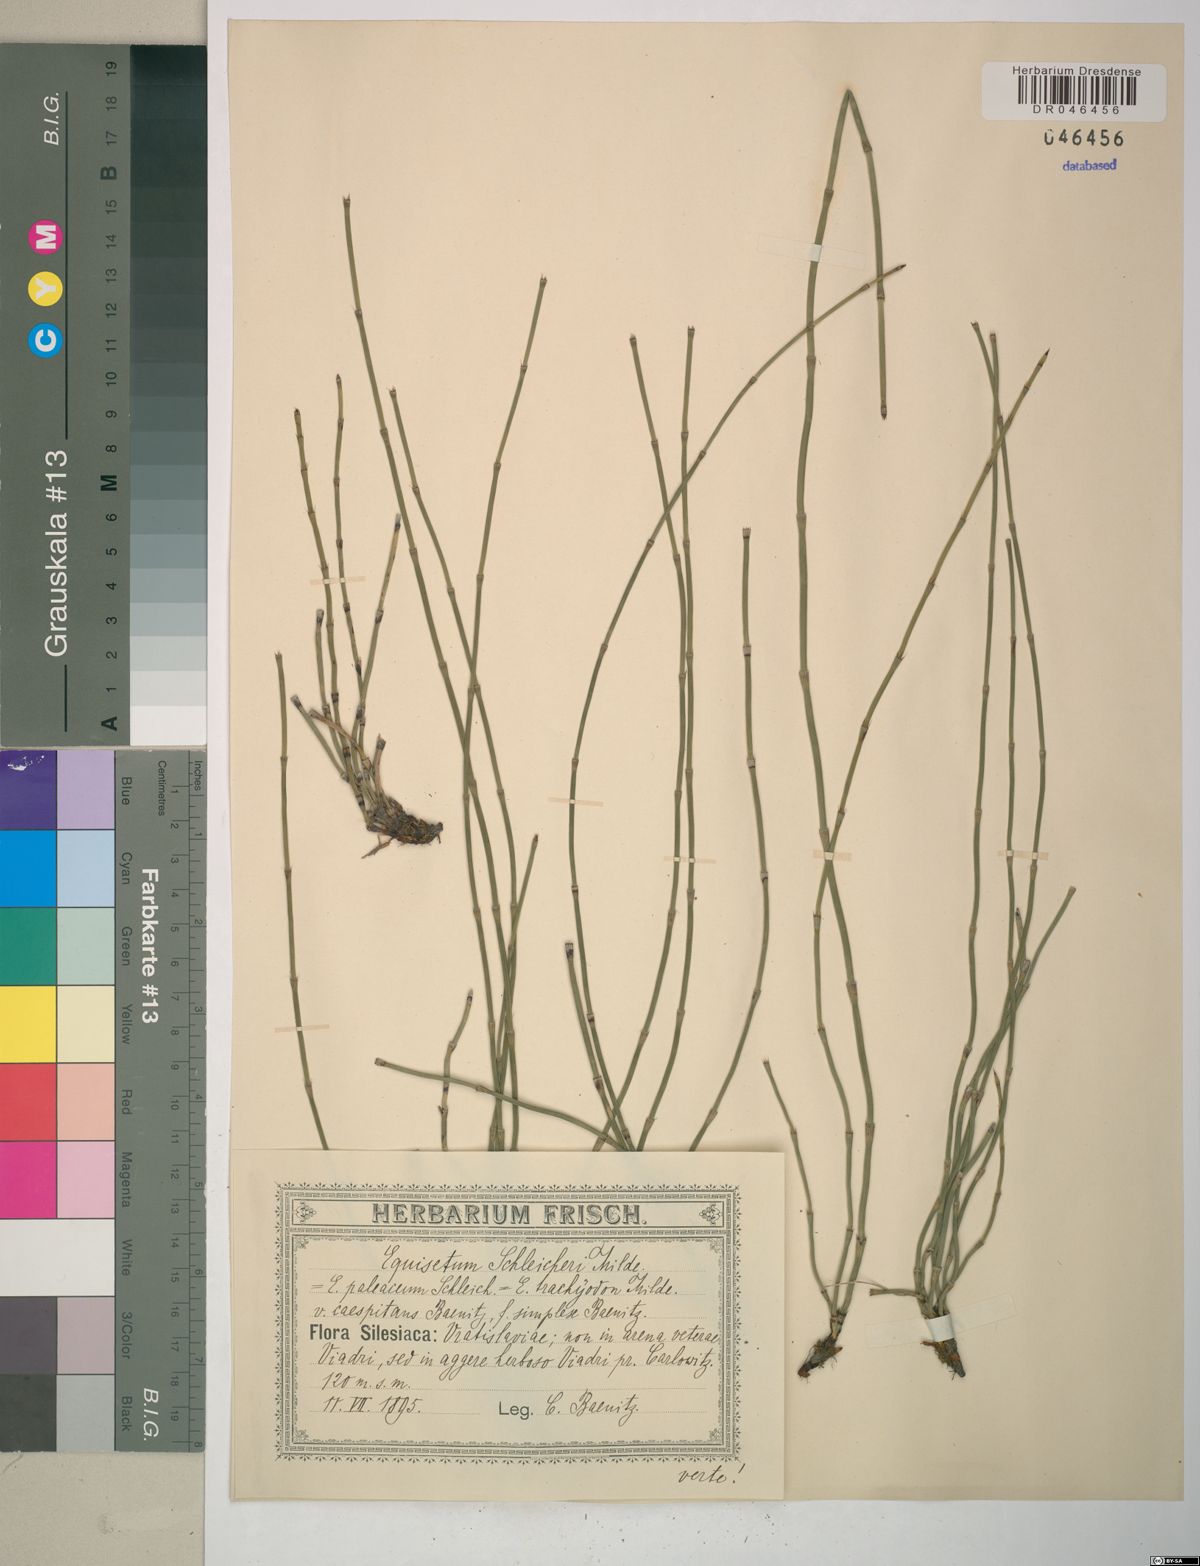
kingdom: Plantae
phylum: Tracheophyta
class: Polypodiopsida
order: Equisetales
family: Equisetaceae
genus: Equisetum
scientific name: Equisetum moorei
